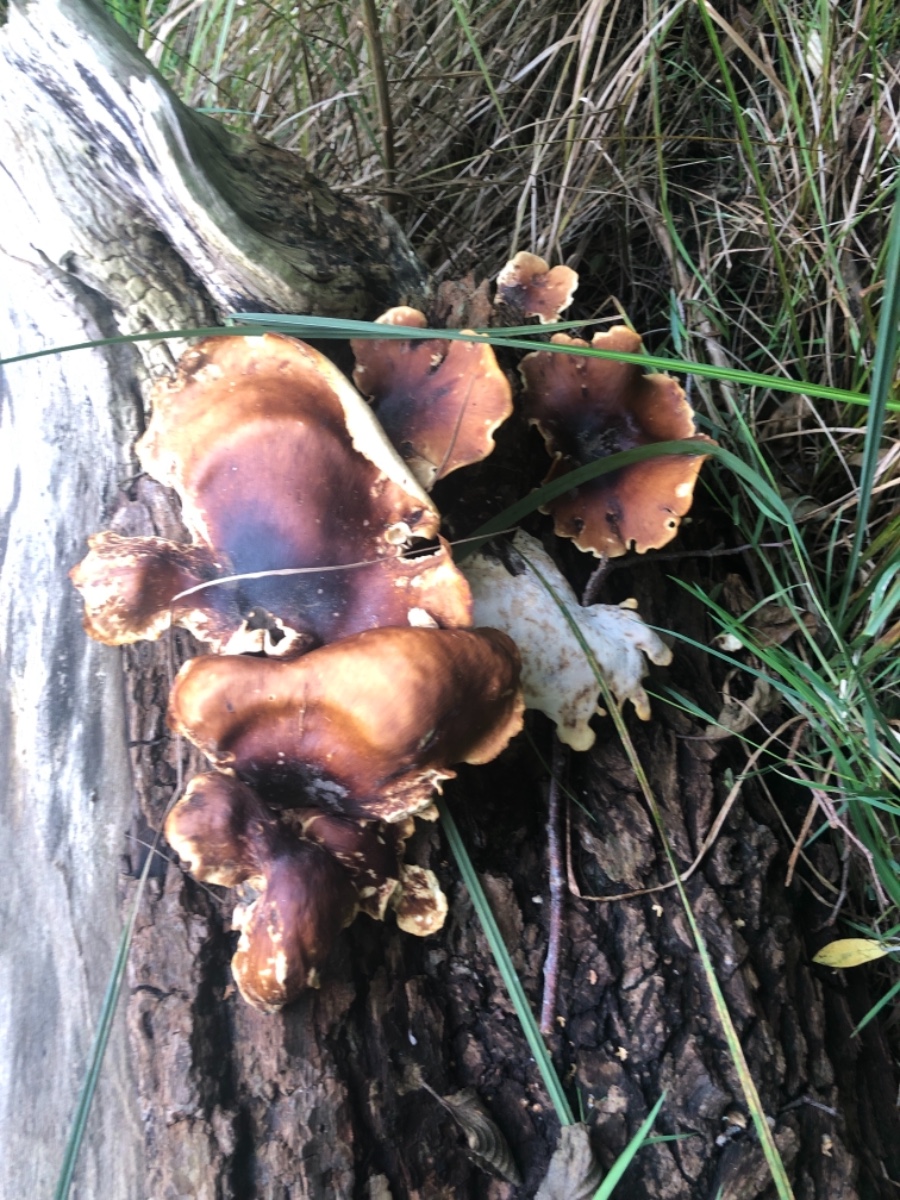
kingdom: Fungi
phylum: Basidiomycota
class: Agaricomycetes
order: Polyporales
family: Polyporaceae
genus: Picipes
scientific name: Picipes badius
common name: kastaniebrun stilkporesvamp
